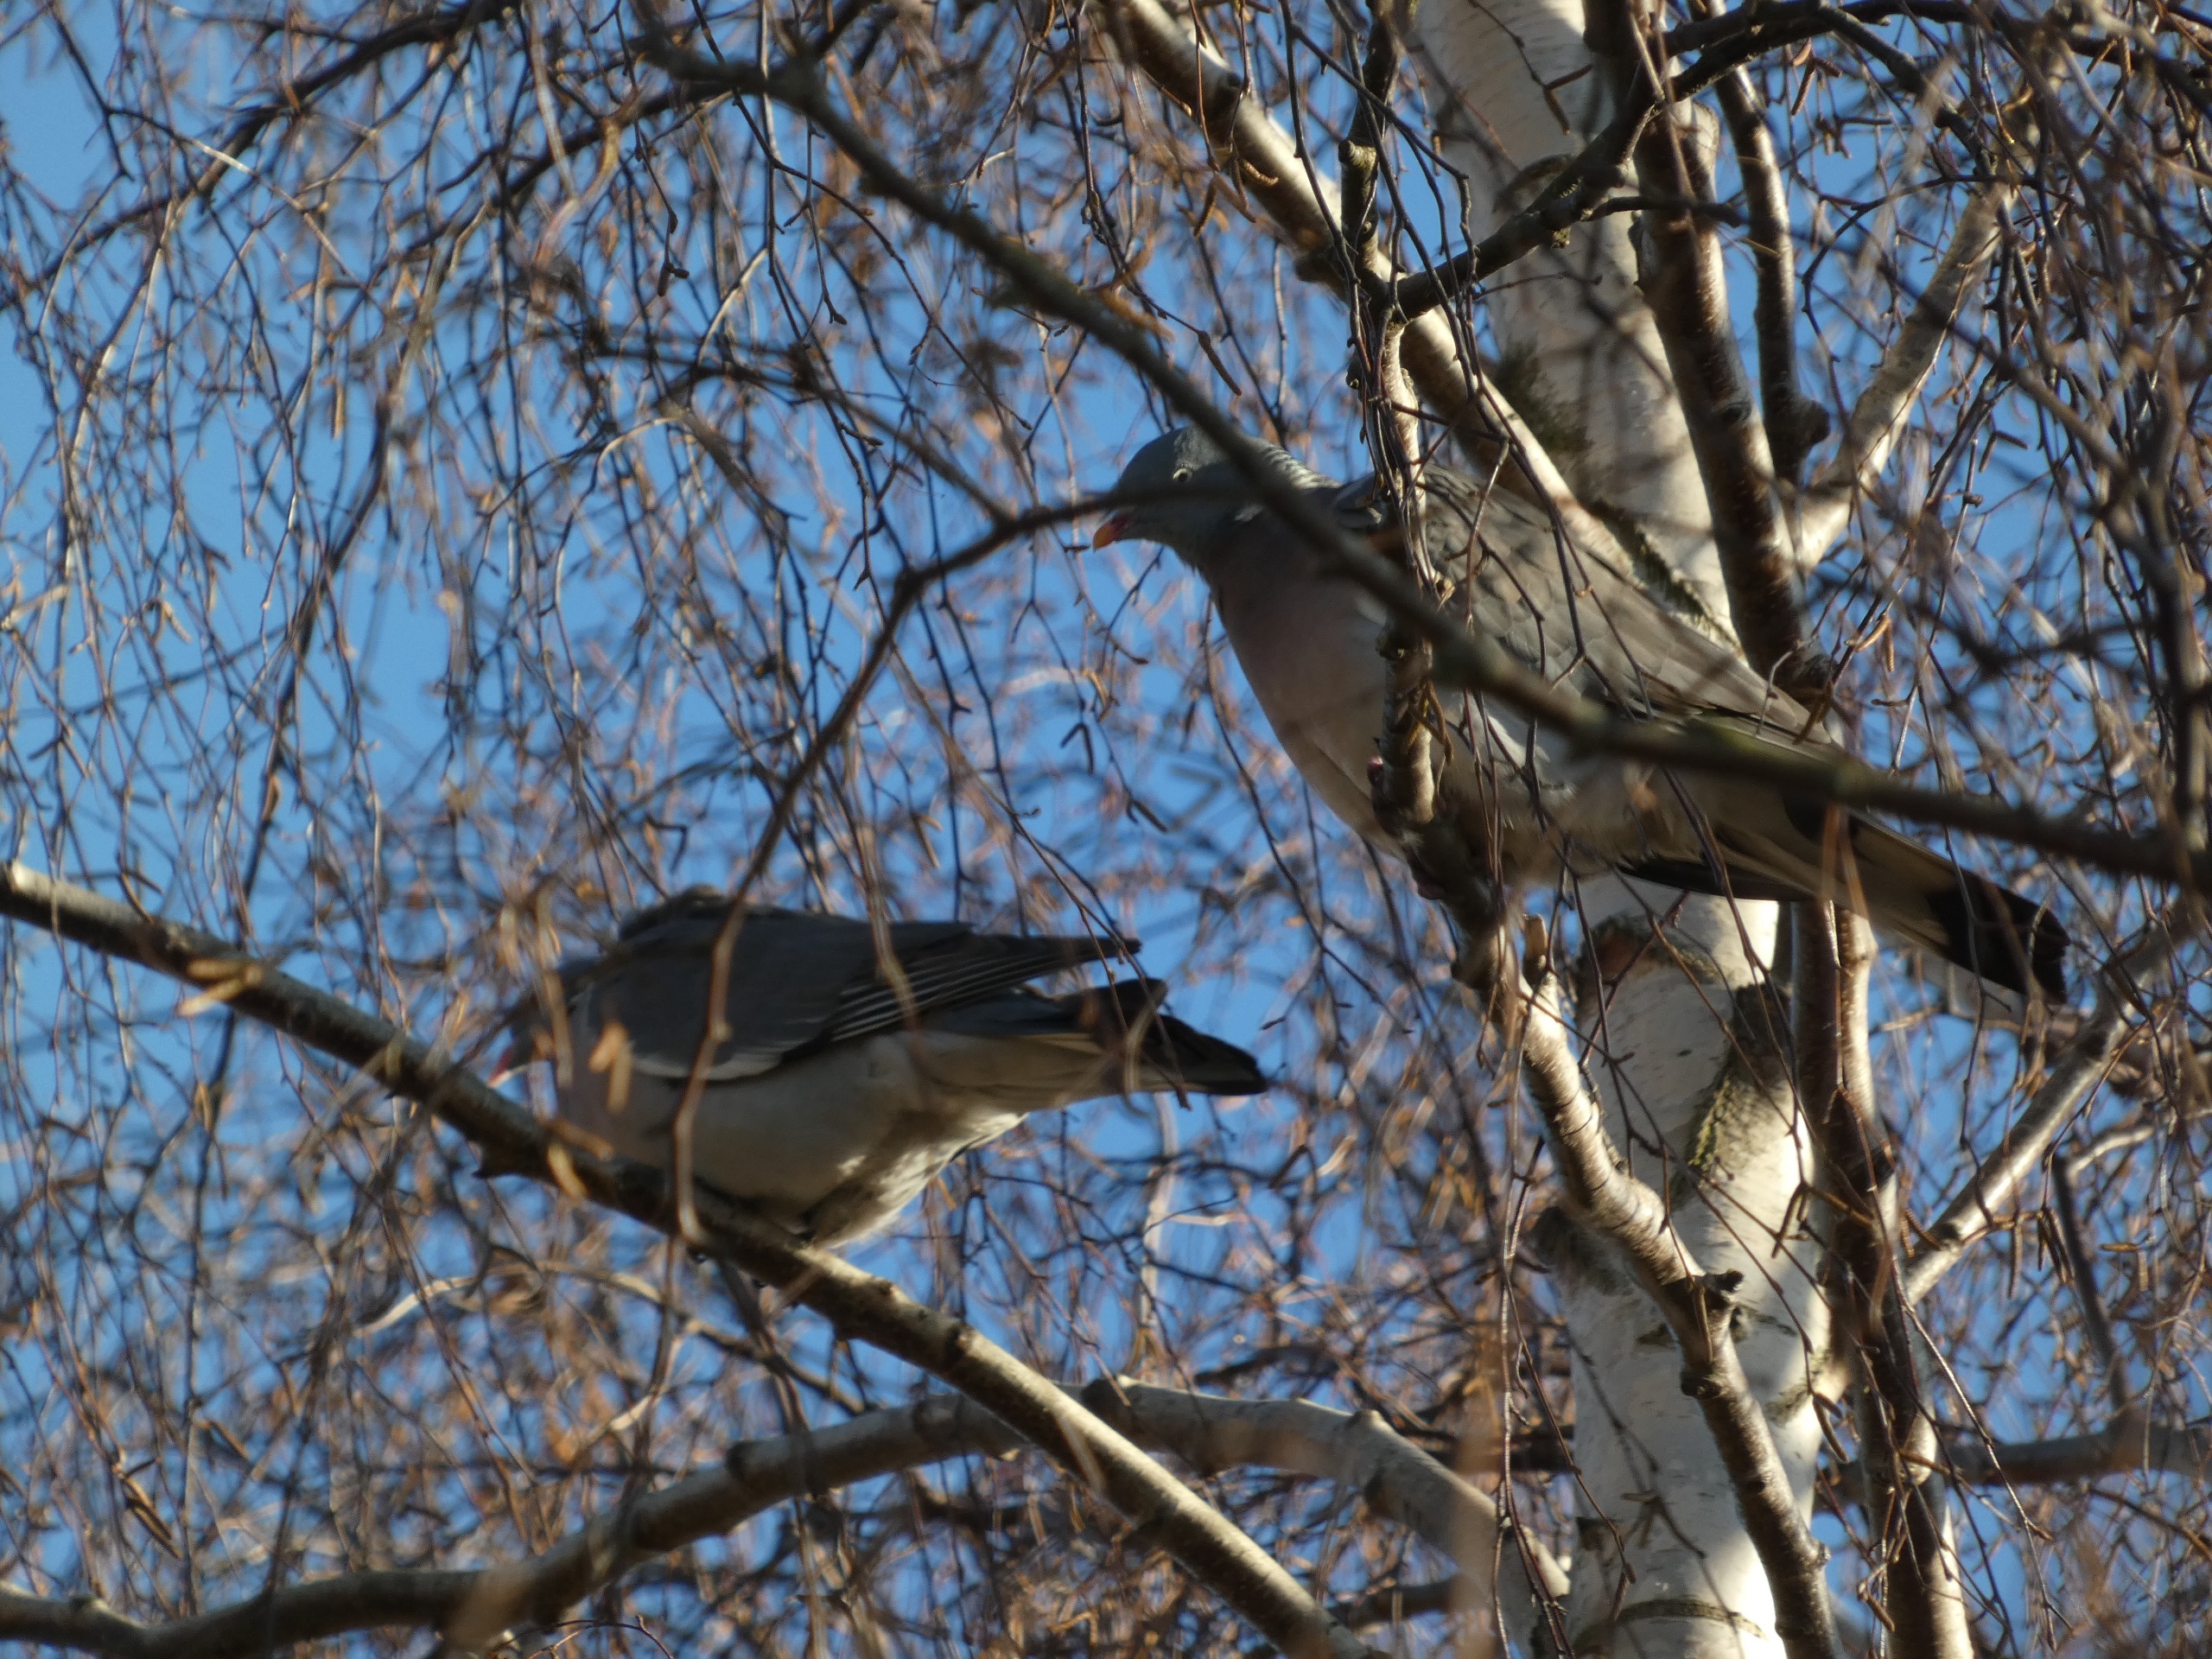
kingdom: Animalia
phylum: Chordata
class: Aves
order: Columbiformes
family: Columbidae
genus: Columba
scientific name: Columba palumbus
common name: Ringdue
